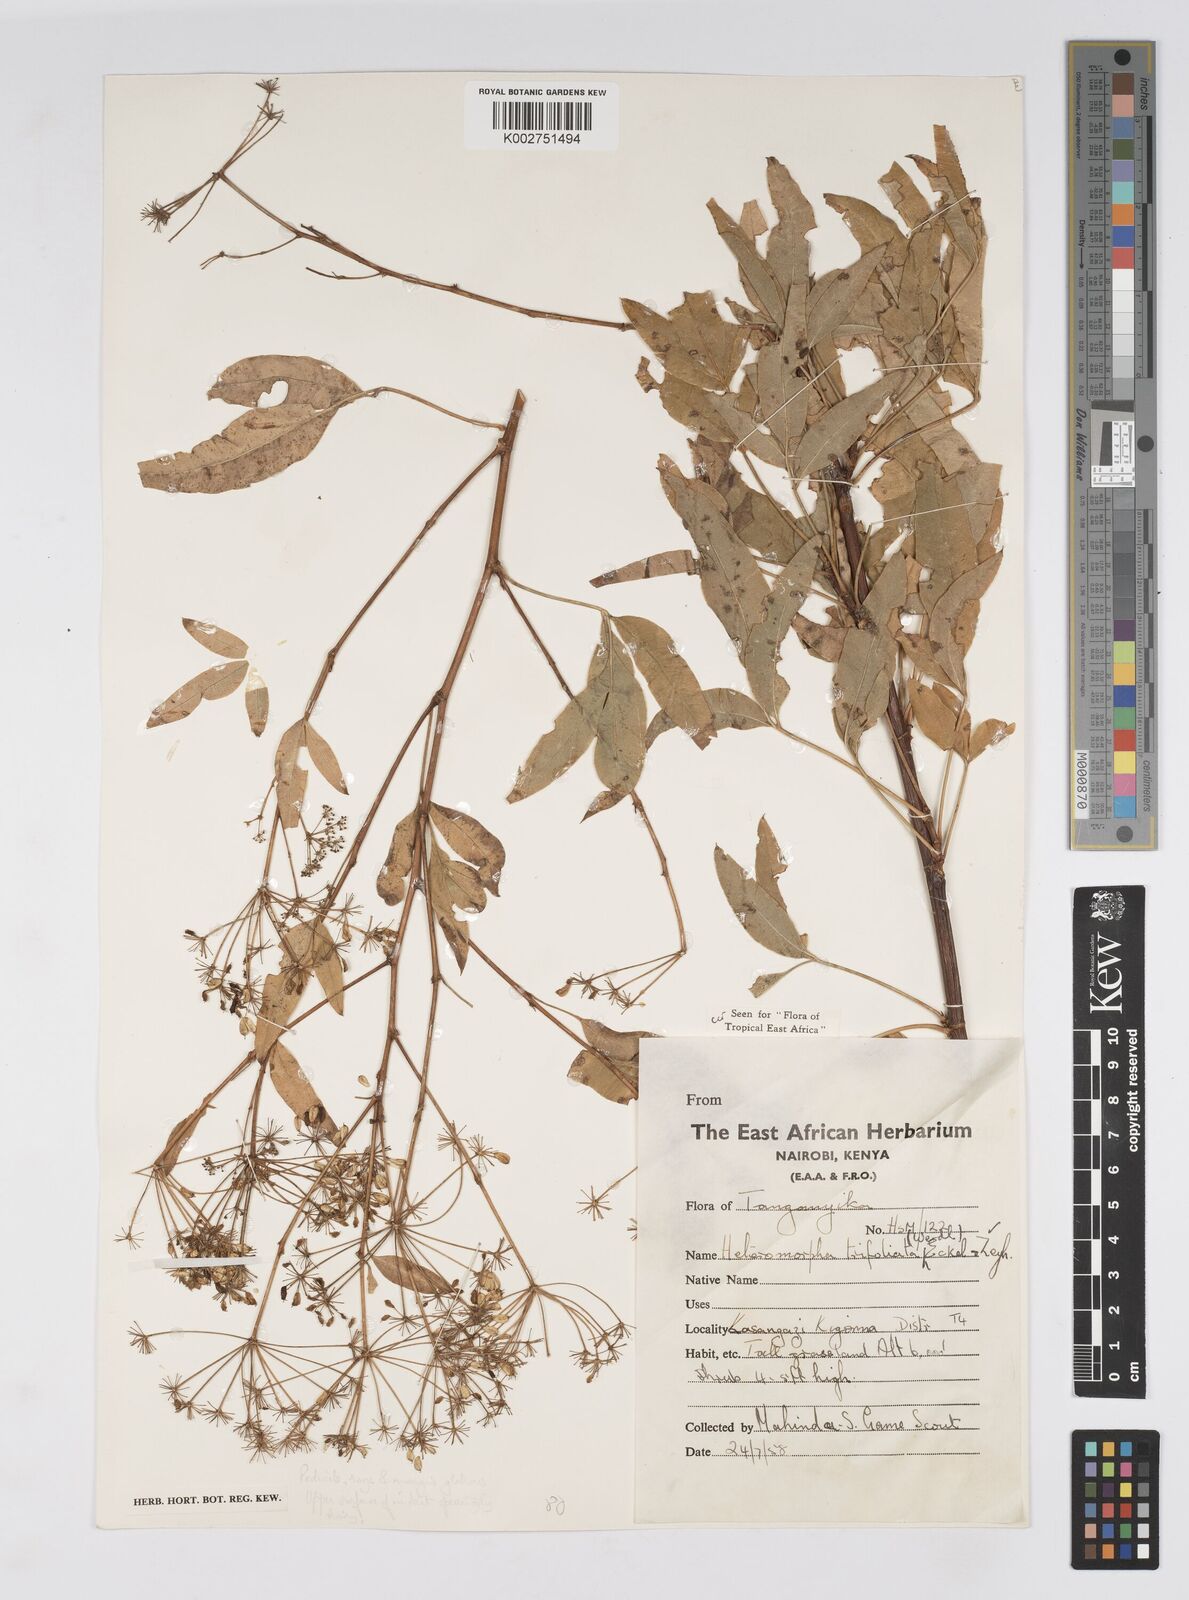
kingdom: Plantae
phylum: Tracheophyta
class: Magnoliopsida
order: Apiales
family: Apiaceae
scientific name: Apiaceae
